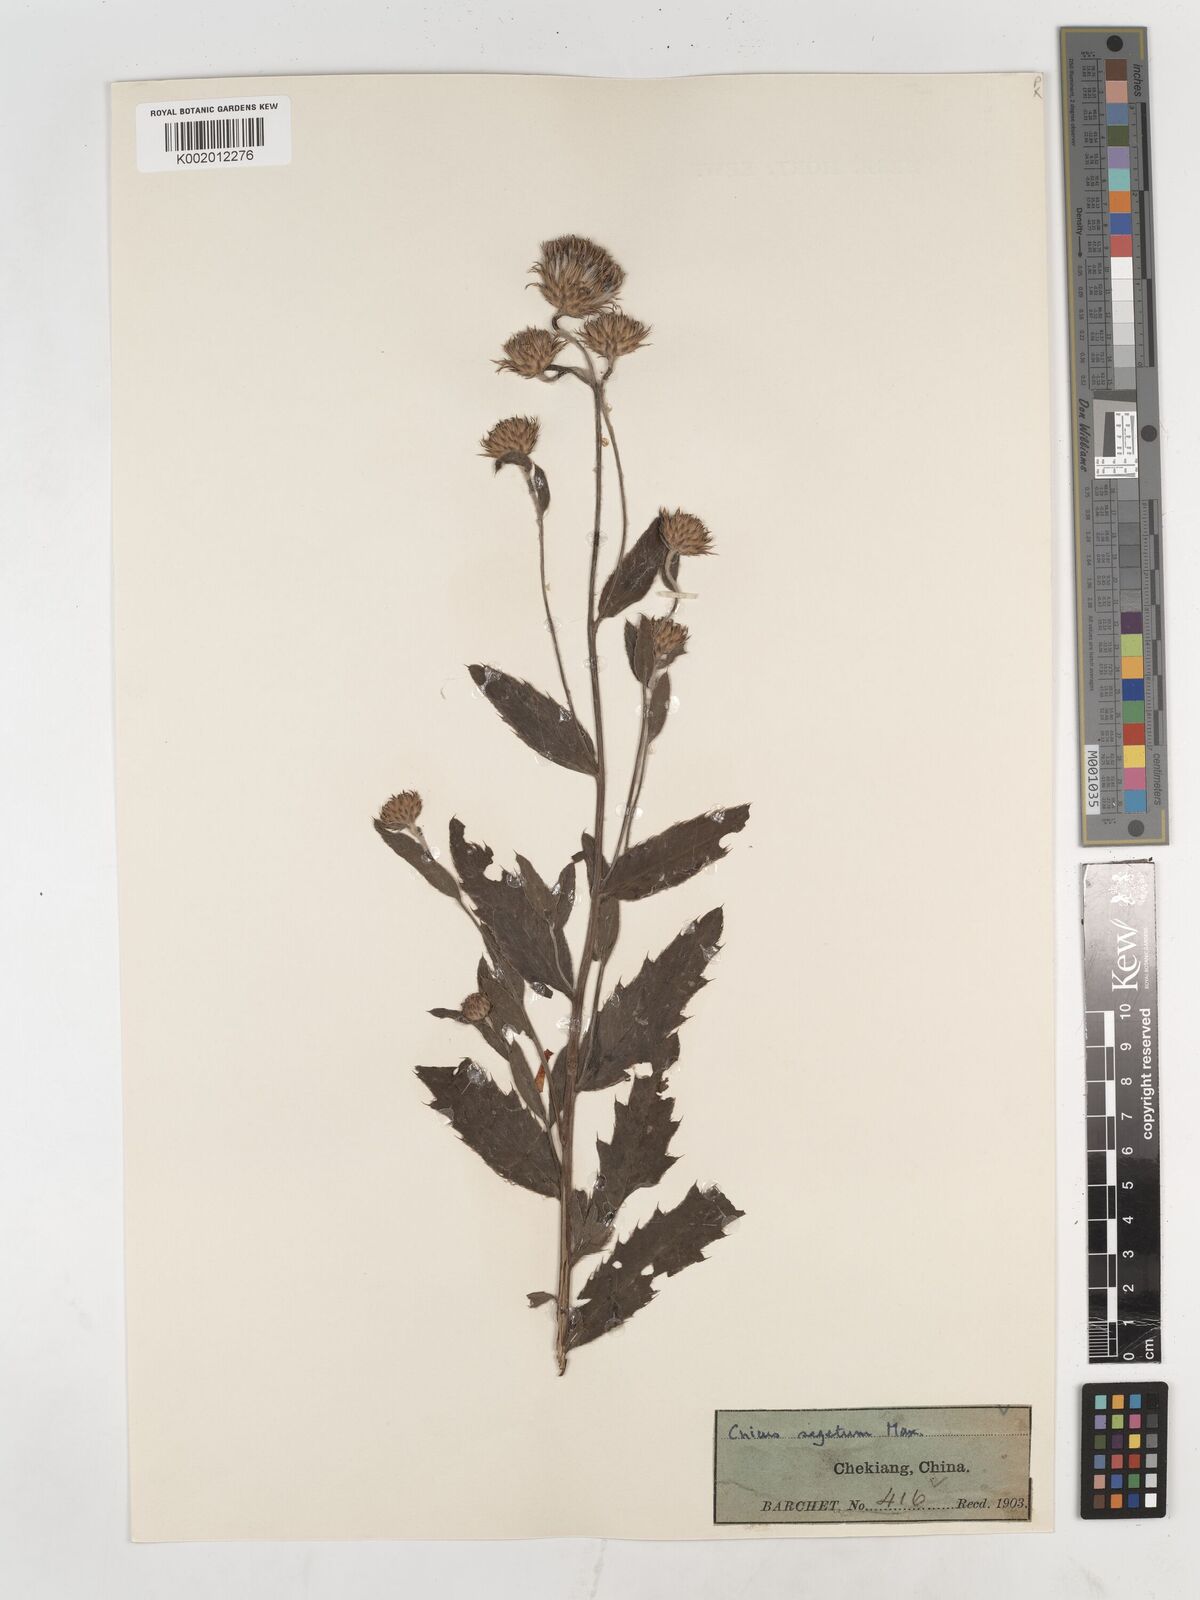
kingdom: Plantae
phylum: Tracheophyta
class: Magnoliopsida
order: Asterales
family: Asteraceae
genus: Cirsium
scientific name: Cirsium arvense
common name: Creeping thistle
